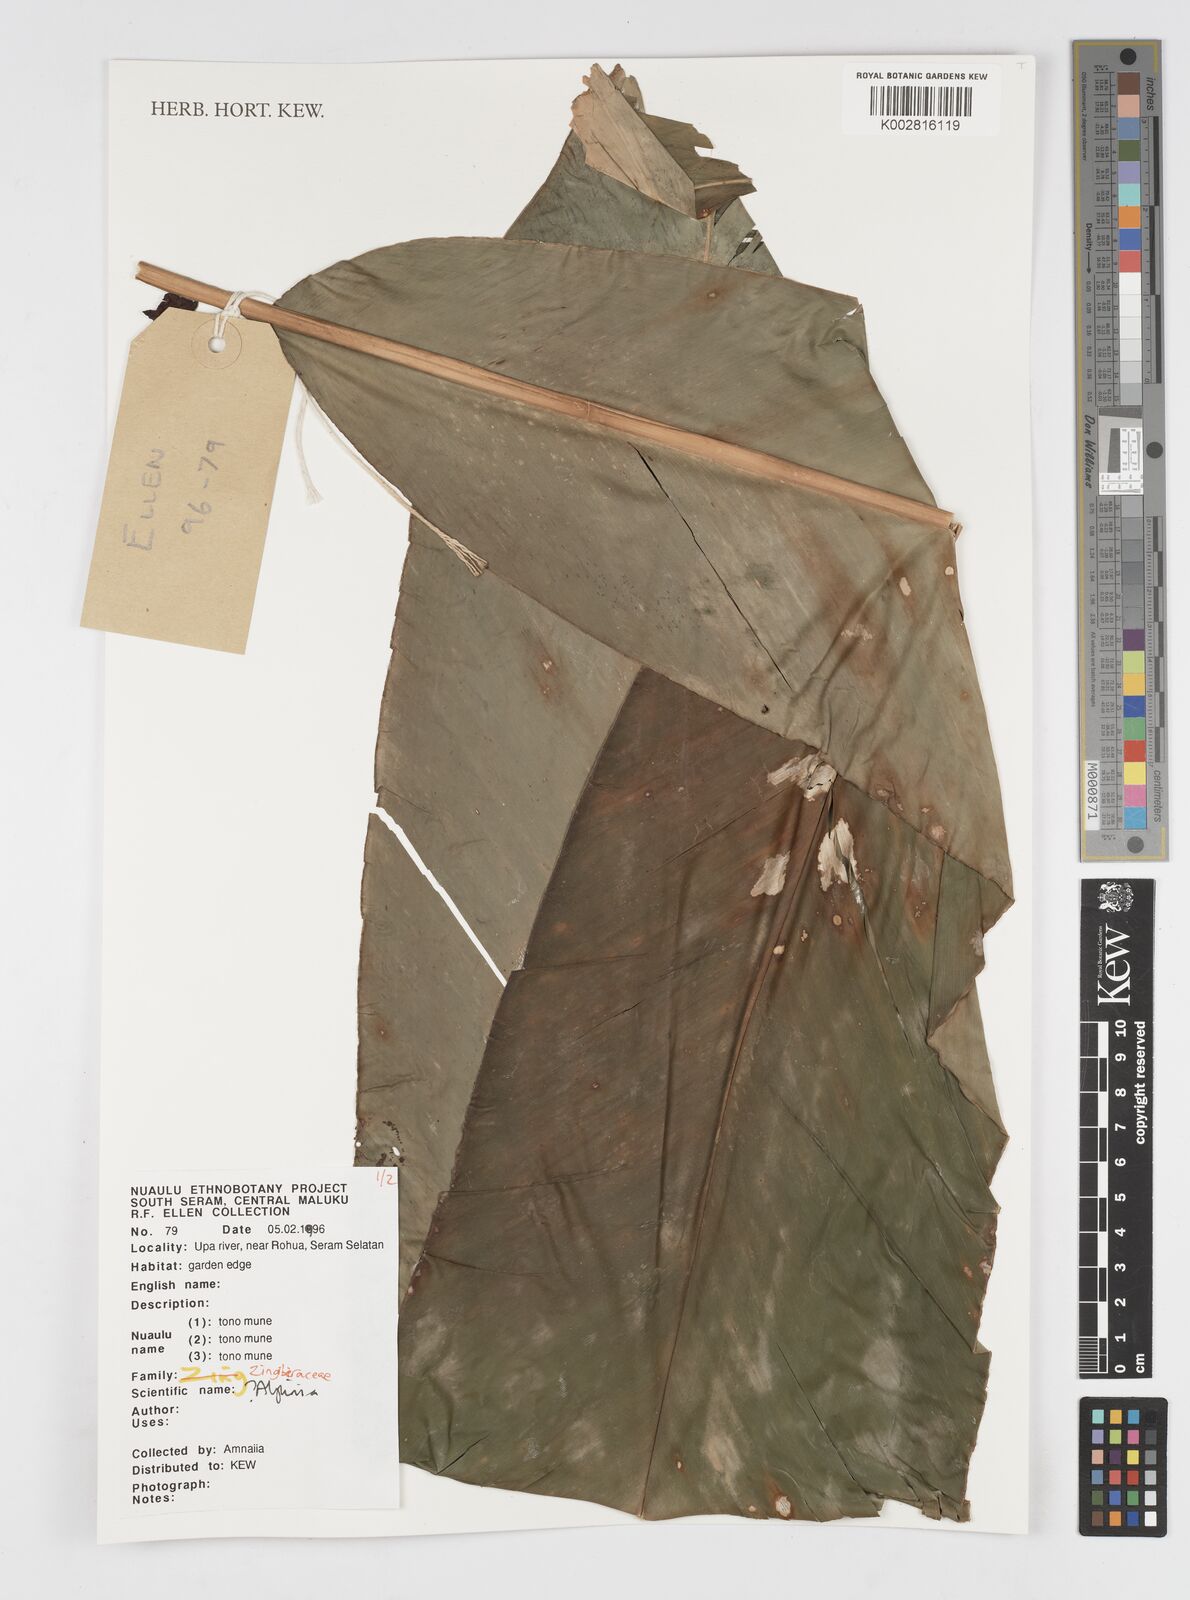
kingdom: Plantae
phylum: Tracheophyta
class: Liliopsida
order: Zingiberales
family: Zingiberaceae
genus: Alpinia
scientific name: Alpinia
